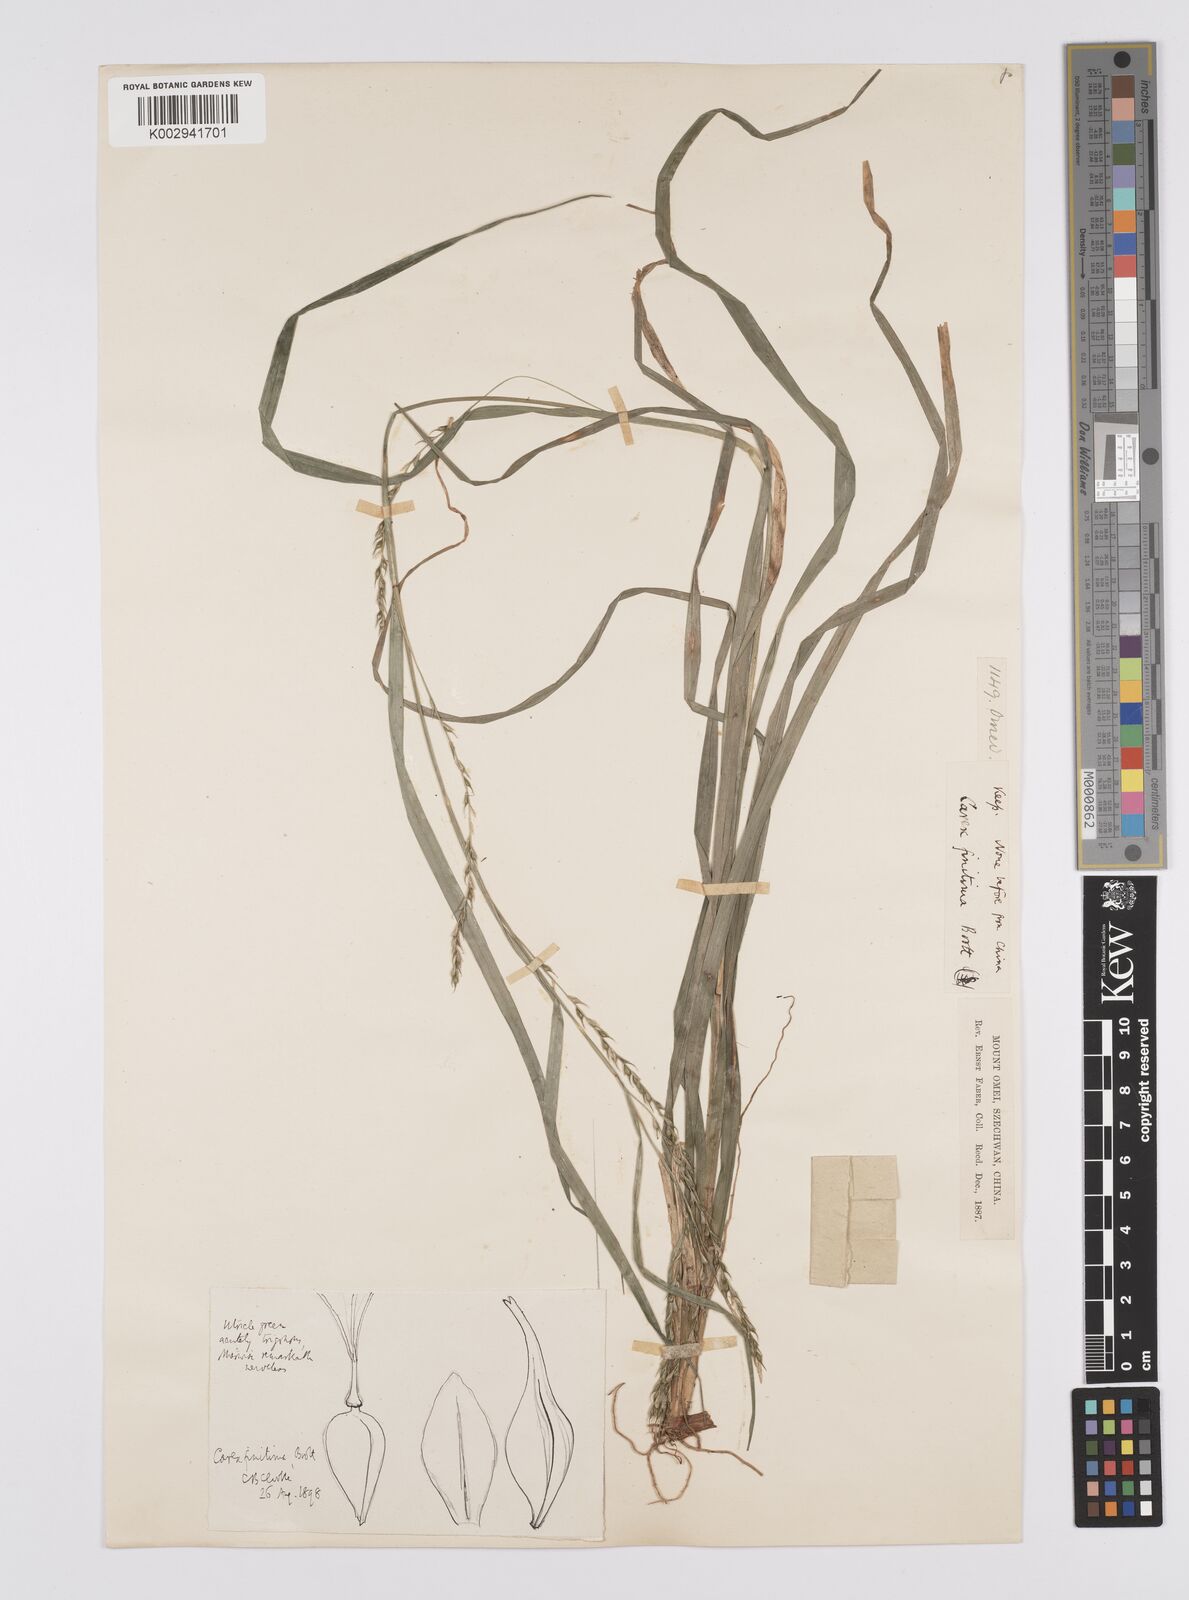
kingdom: Plantae
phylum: Tracheophyta
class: Liliopsida
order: Poales
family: Cyperaceae
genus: Carex
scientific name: Carex finitima
